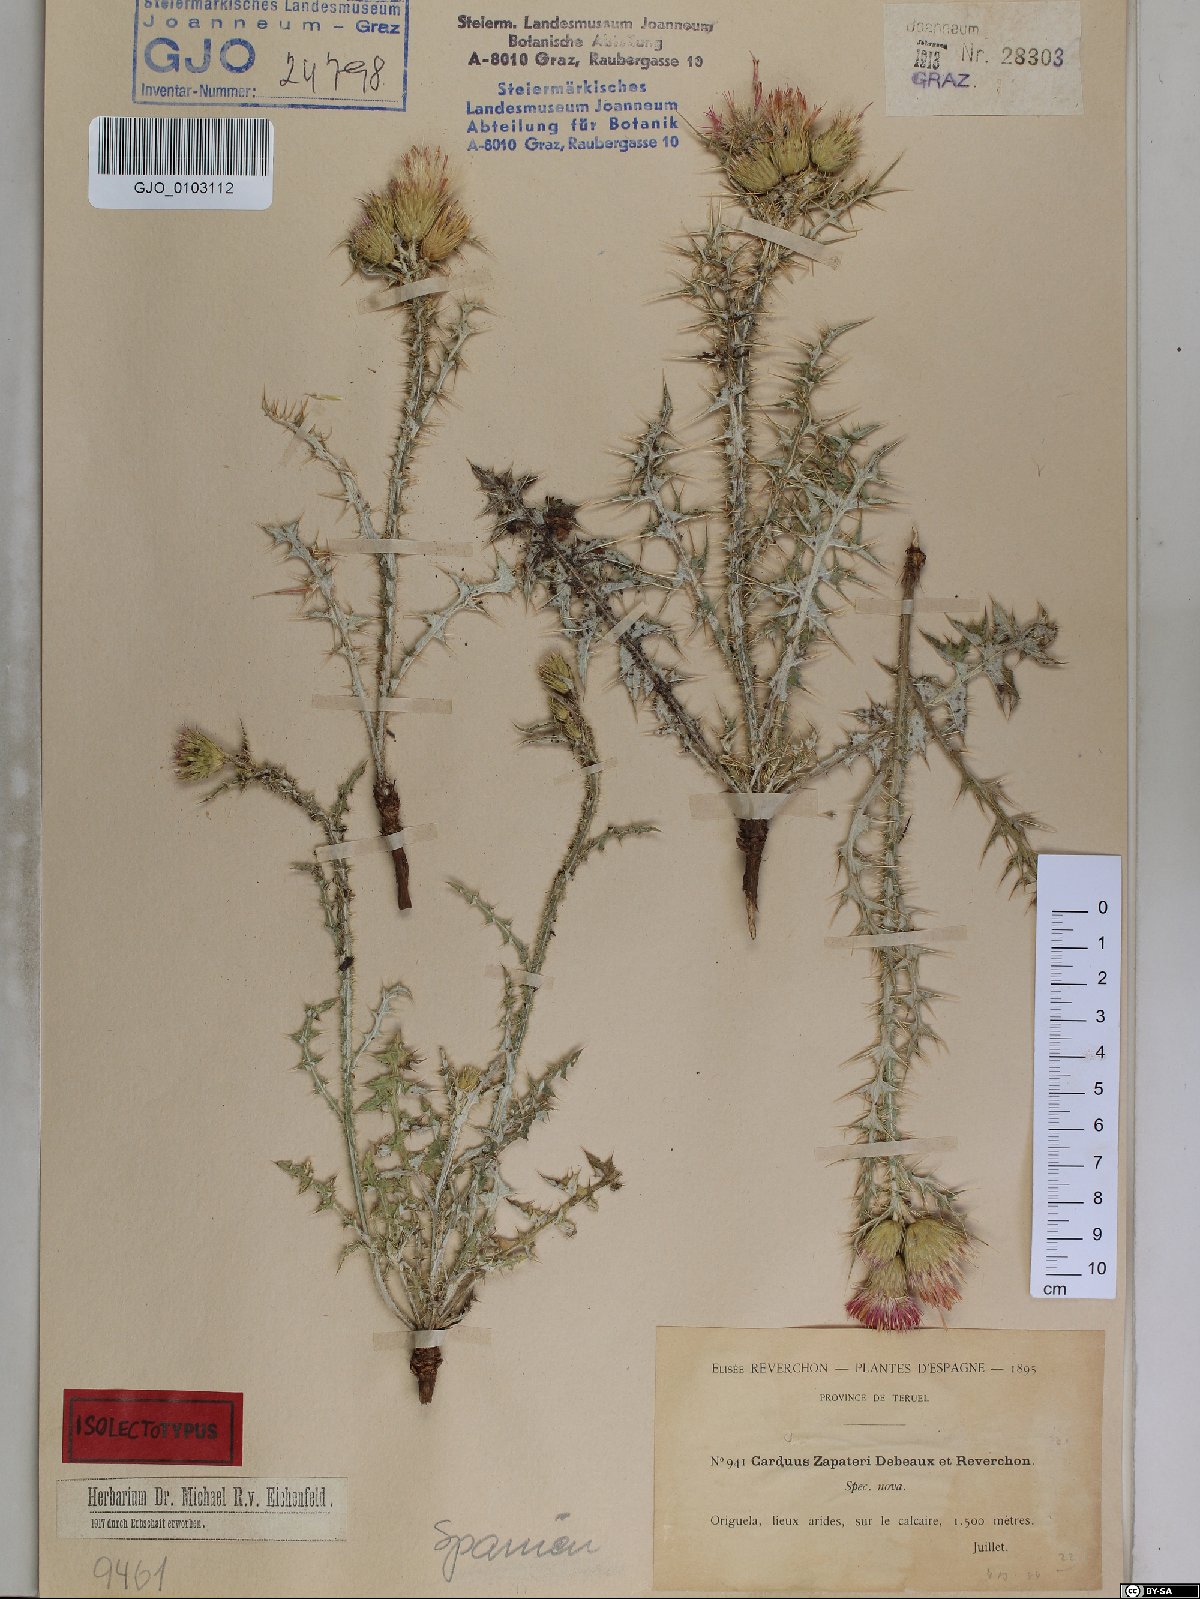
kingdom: Plantae
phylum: Tracheophyta
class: Magnoliopsida
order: Asterales
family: Asteraceae
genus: Carduus
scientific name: Carduus pycnocephalus
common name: Plymouth thistle
